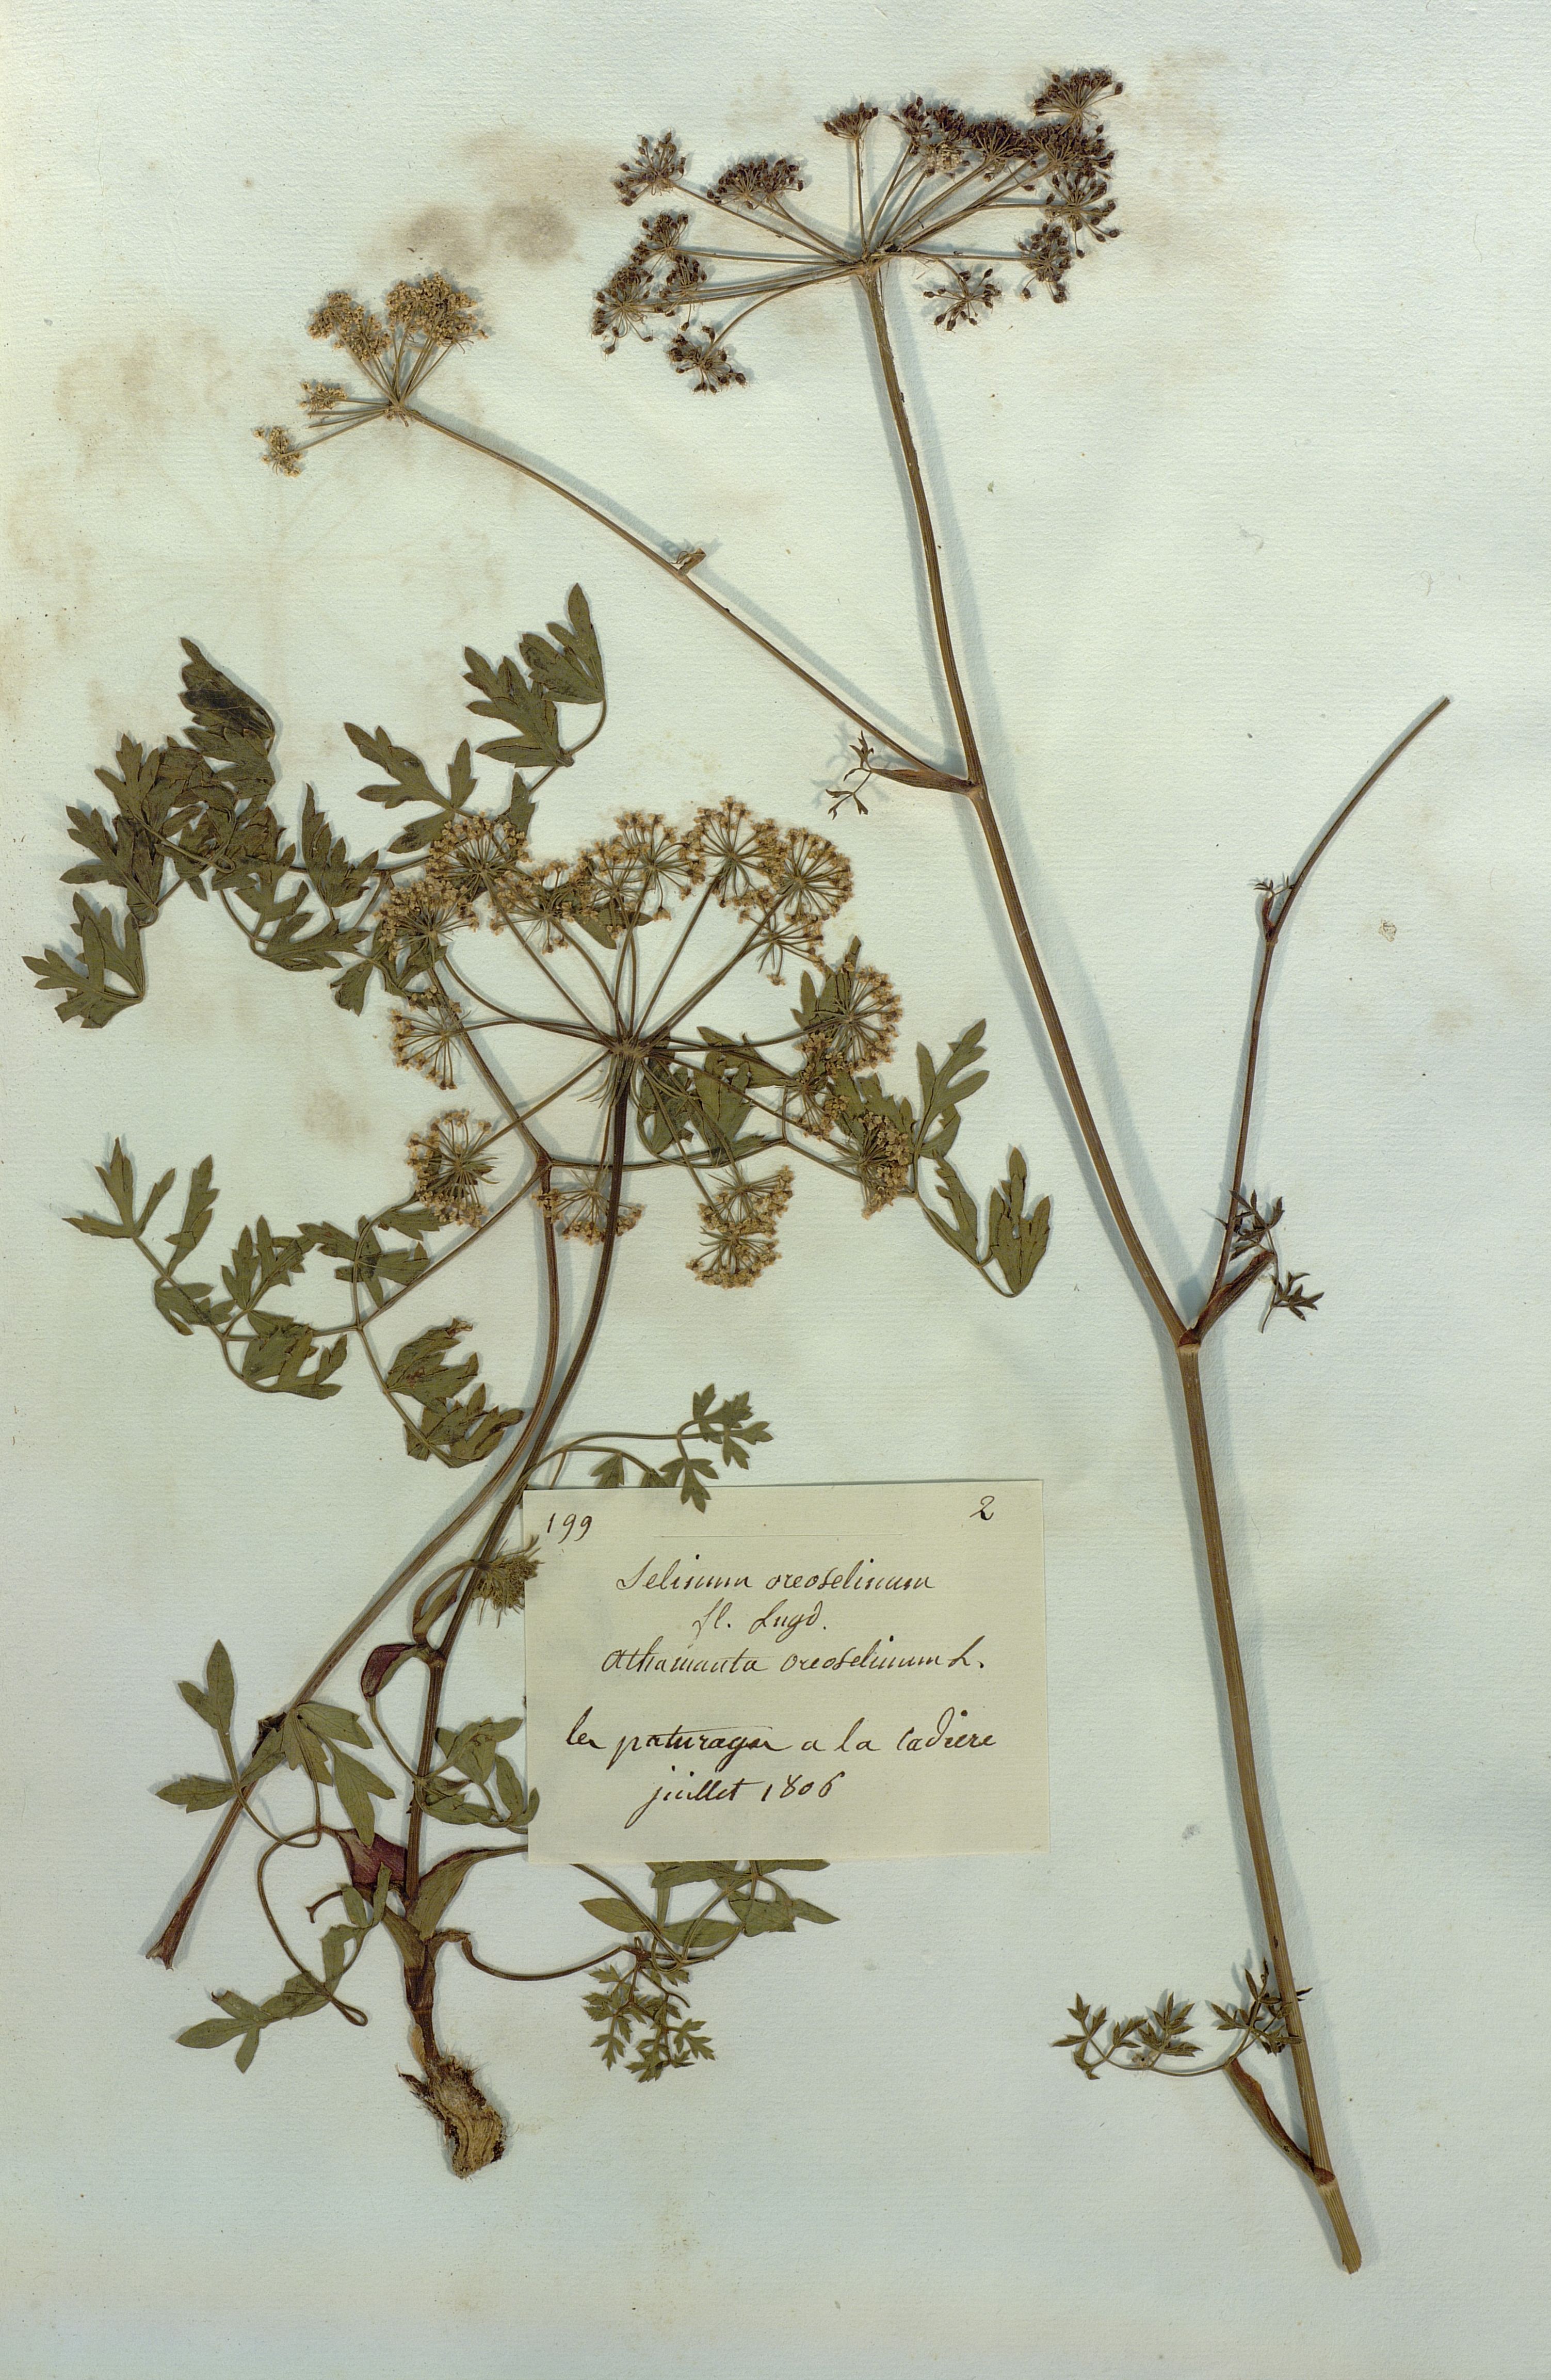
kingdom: Plantae
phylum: Tracheophyta
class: Magnoliopsida
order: Apiales
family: Apiaceae
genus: Oreoselinum
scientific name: Oreoselinum nigrum
